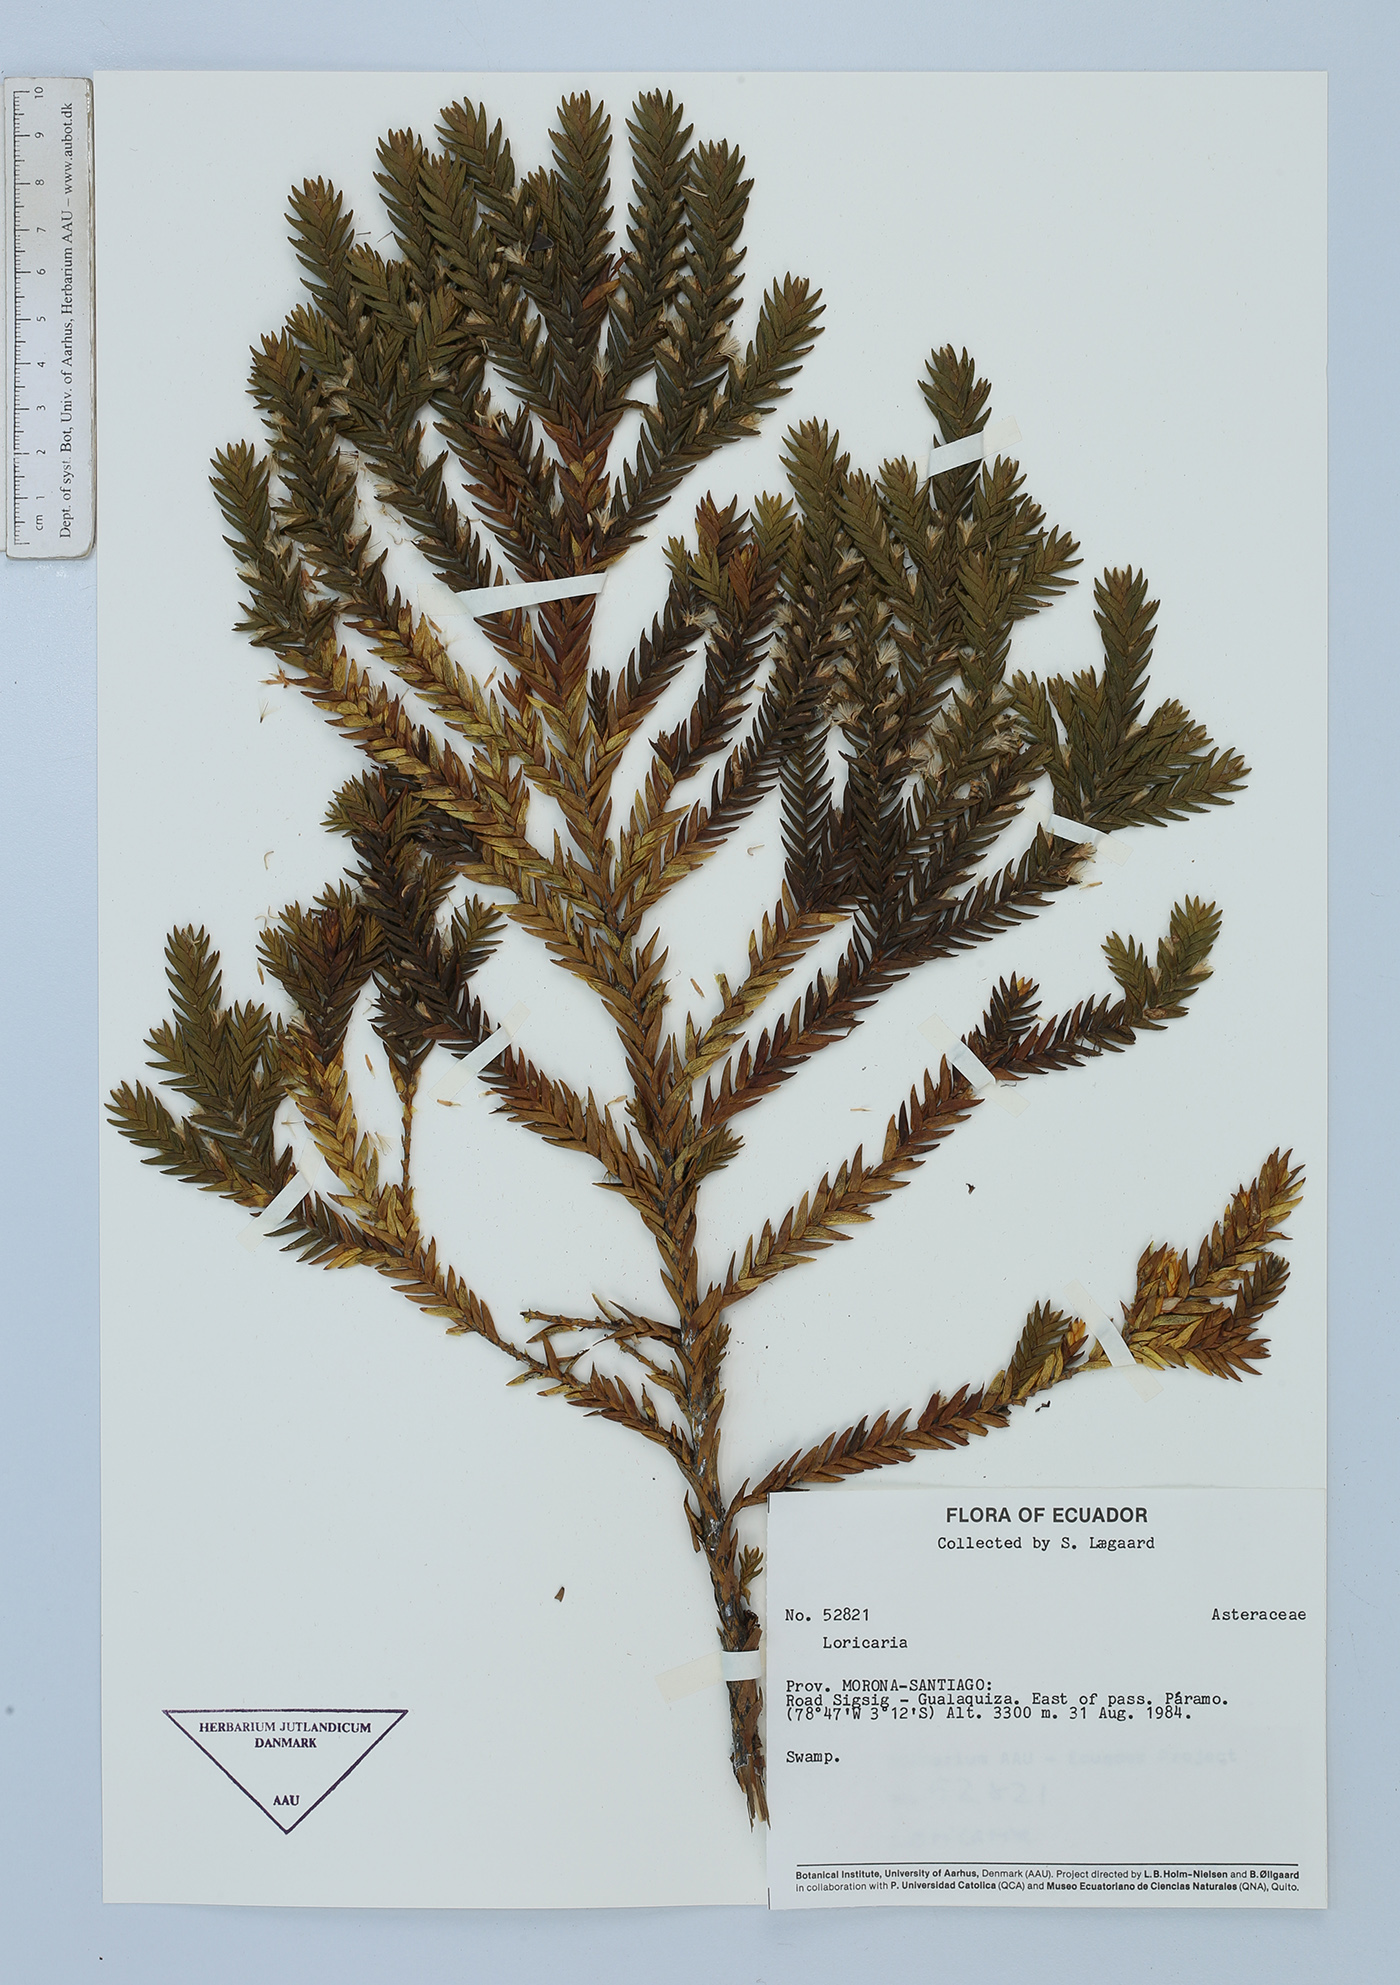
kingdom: Plantae
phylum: Tracheophyta
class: Magnoliopsida
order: Asterales
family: Asteraceae
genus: Andicolea
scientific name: Andicolea scolopendra
